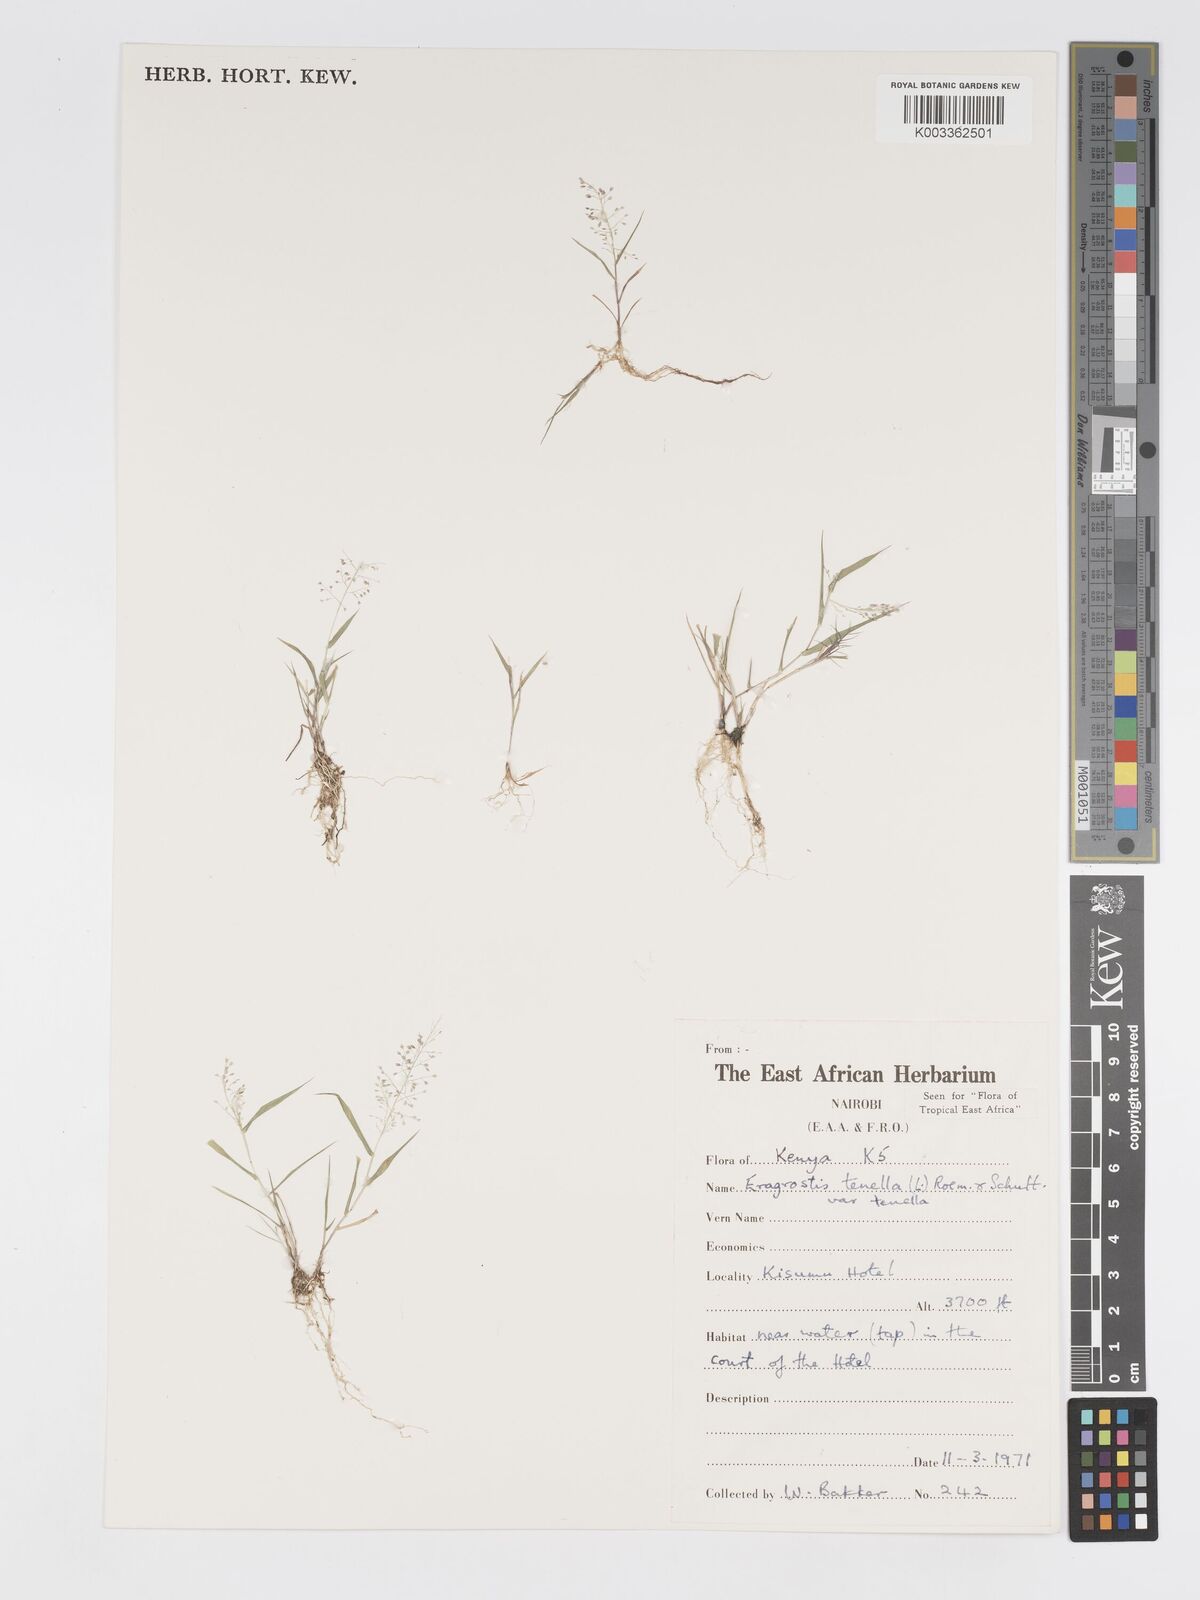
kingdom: Plantae
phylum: Tracheophyta
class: Liliopsida
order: Poales
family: Poaceae
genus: Eragrostis
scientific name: Eragrostis tenella
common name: Japanese lovegrass
